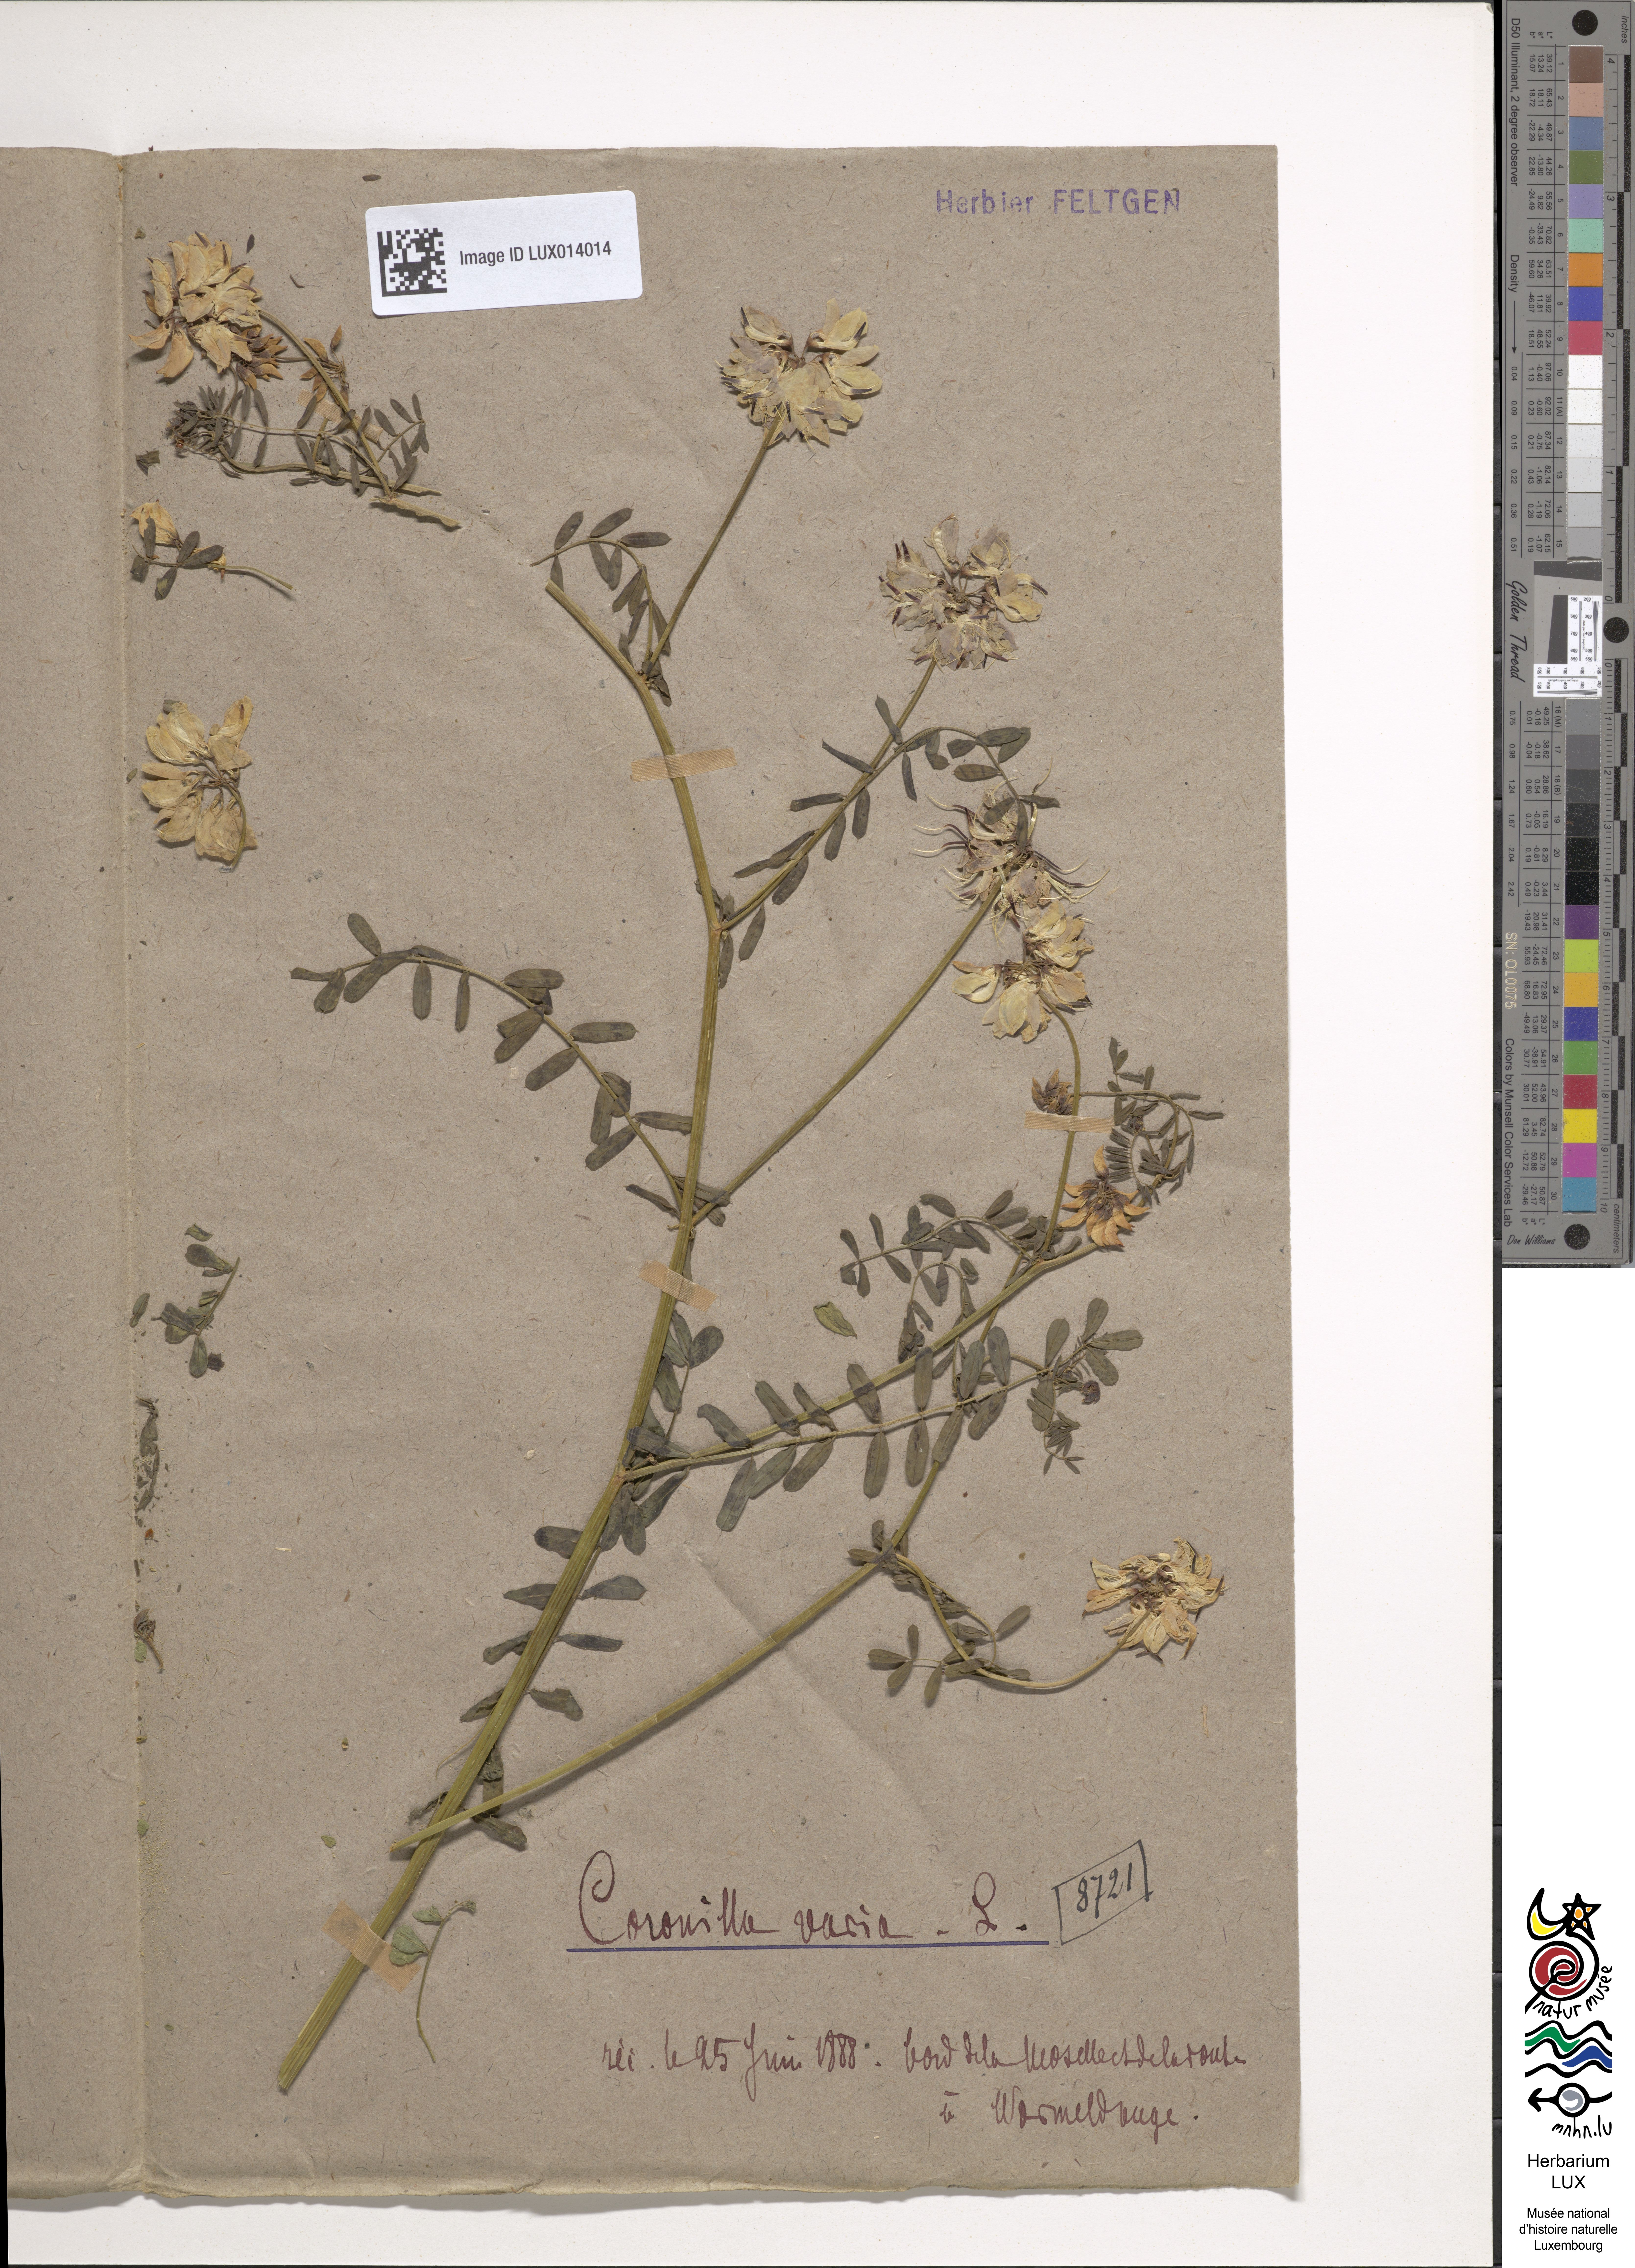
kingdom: Plantae
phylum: Tracheophyta
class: Magnoliopsida
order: Fabales
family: Fabaceae
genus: Coronilla
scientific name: Coronilla varia
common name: Crownvetch
